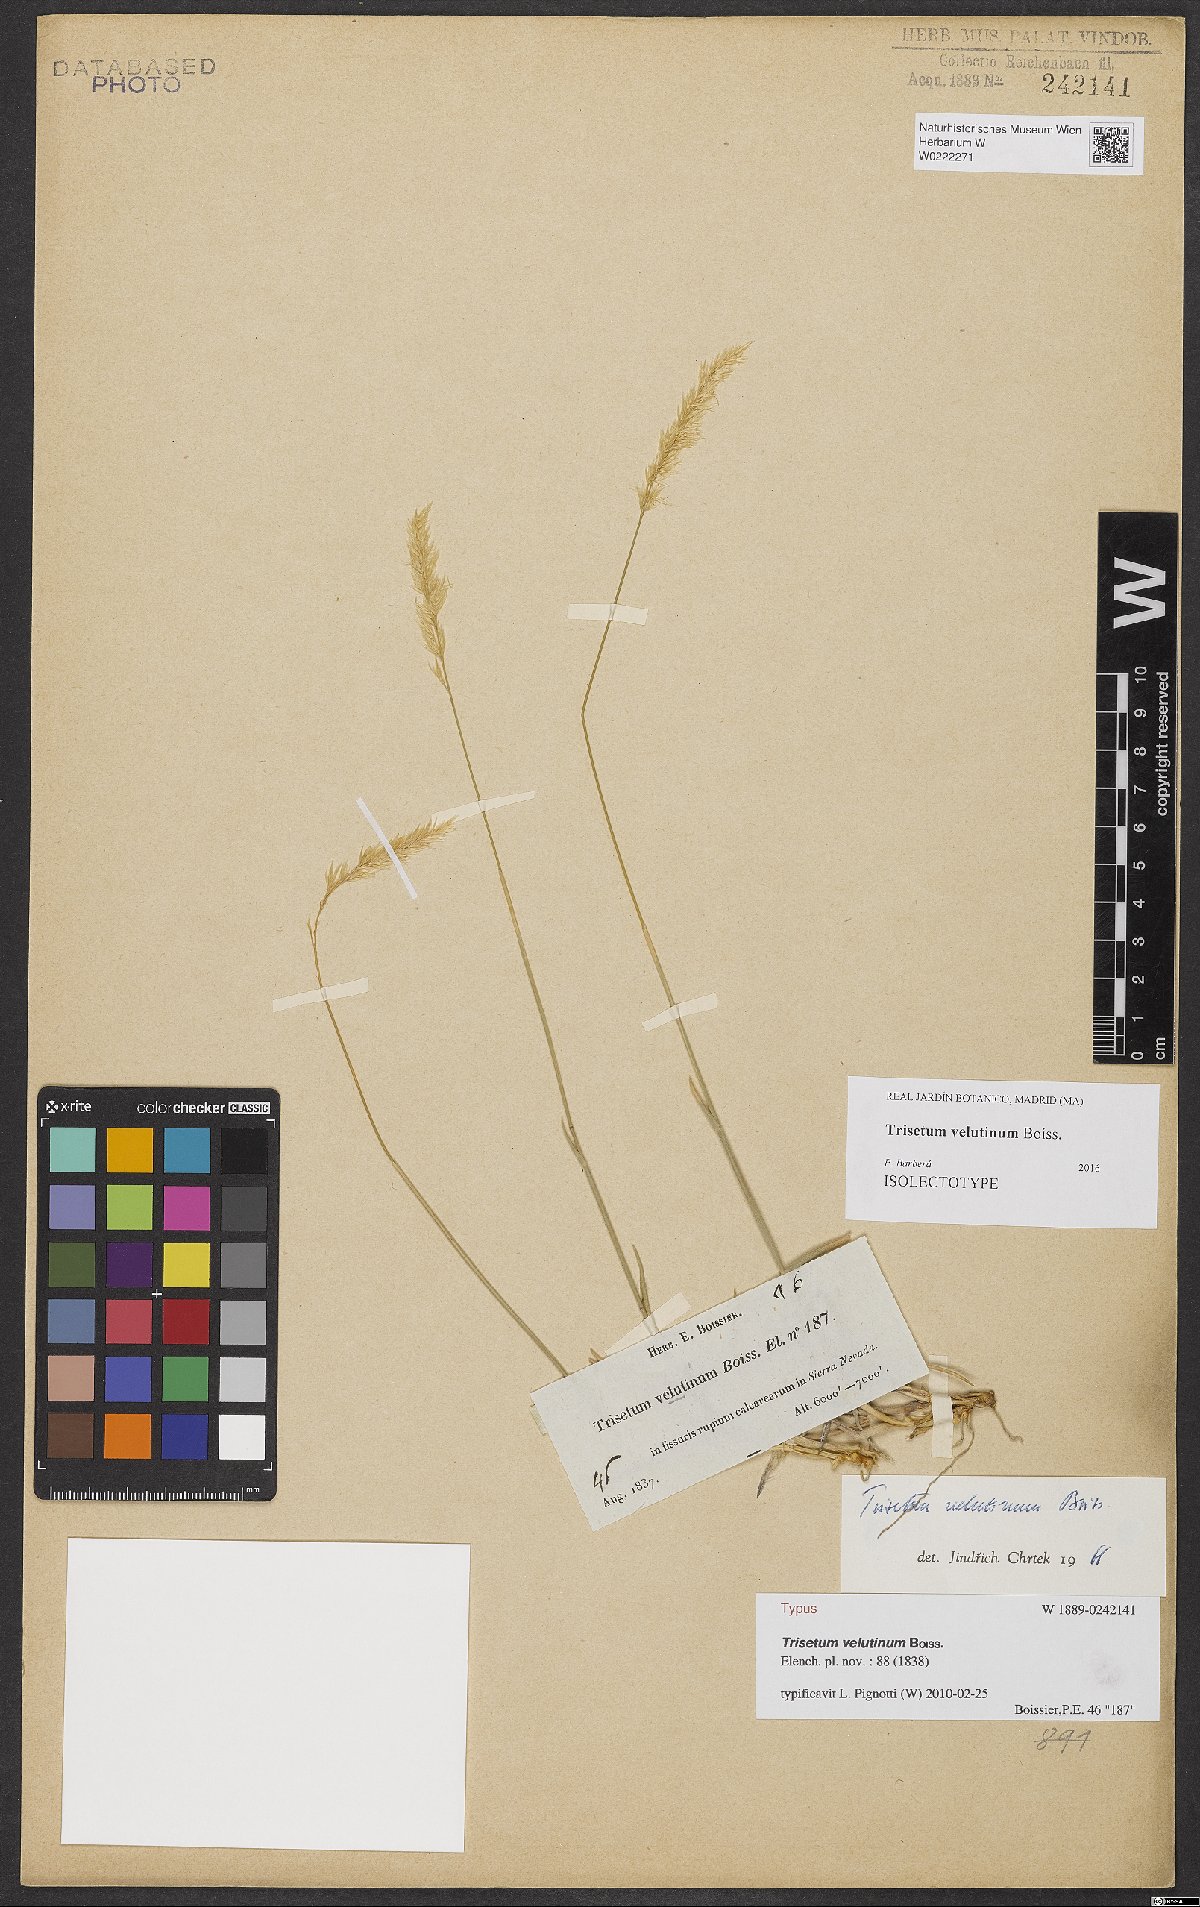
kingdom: Plantae
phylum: Tracheophyta
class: Liliopsida
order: Poales
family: Poaceae
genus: Trisetum
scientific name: Trisetum velutinum
